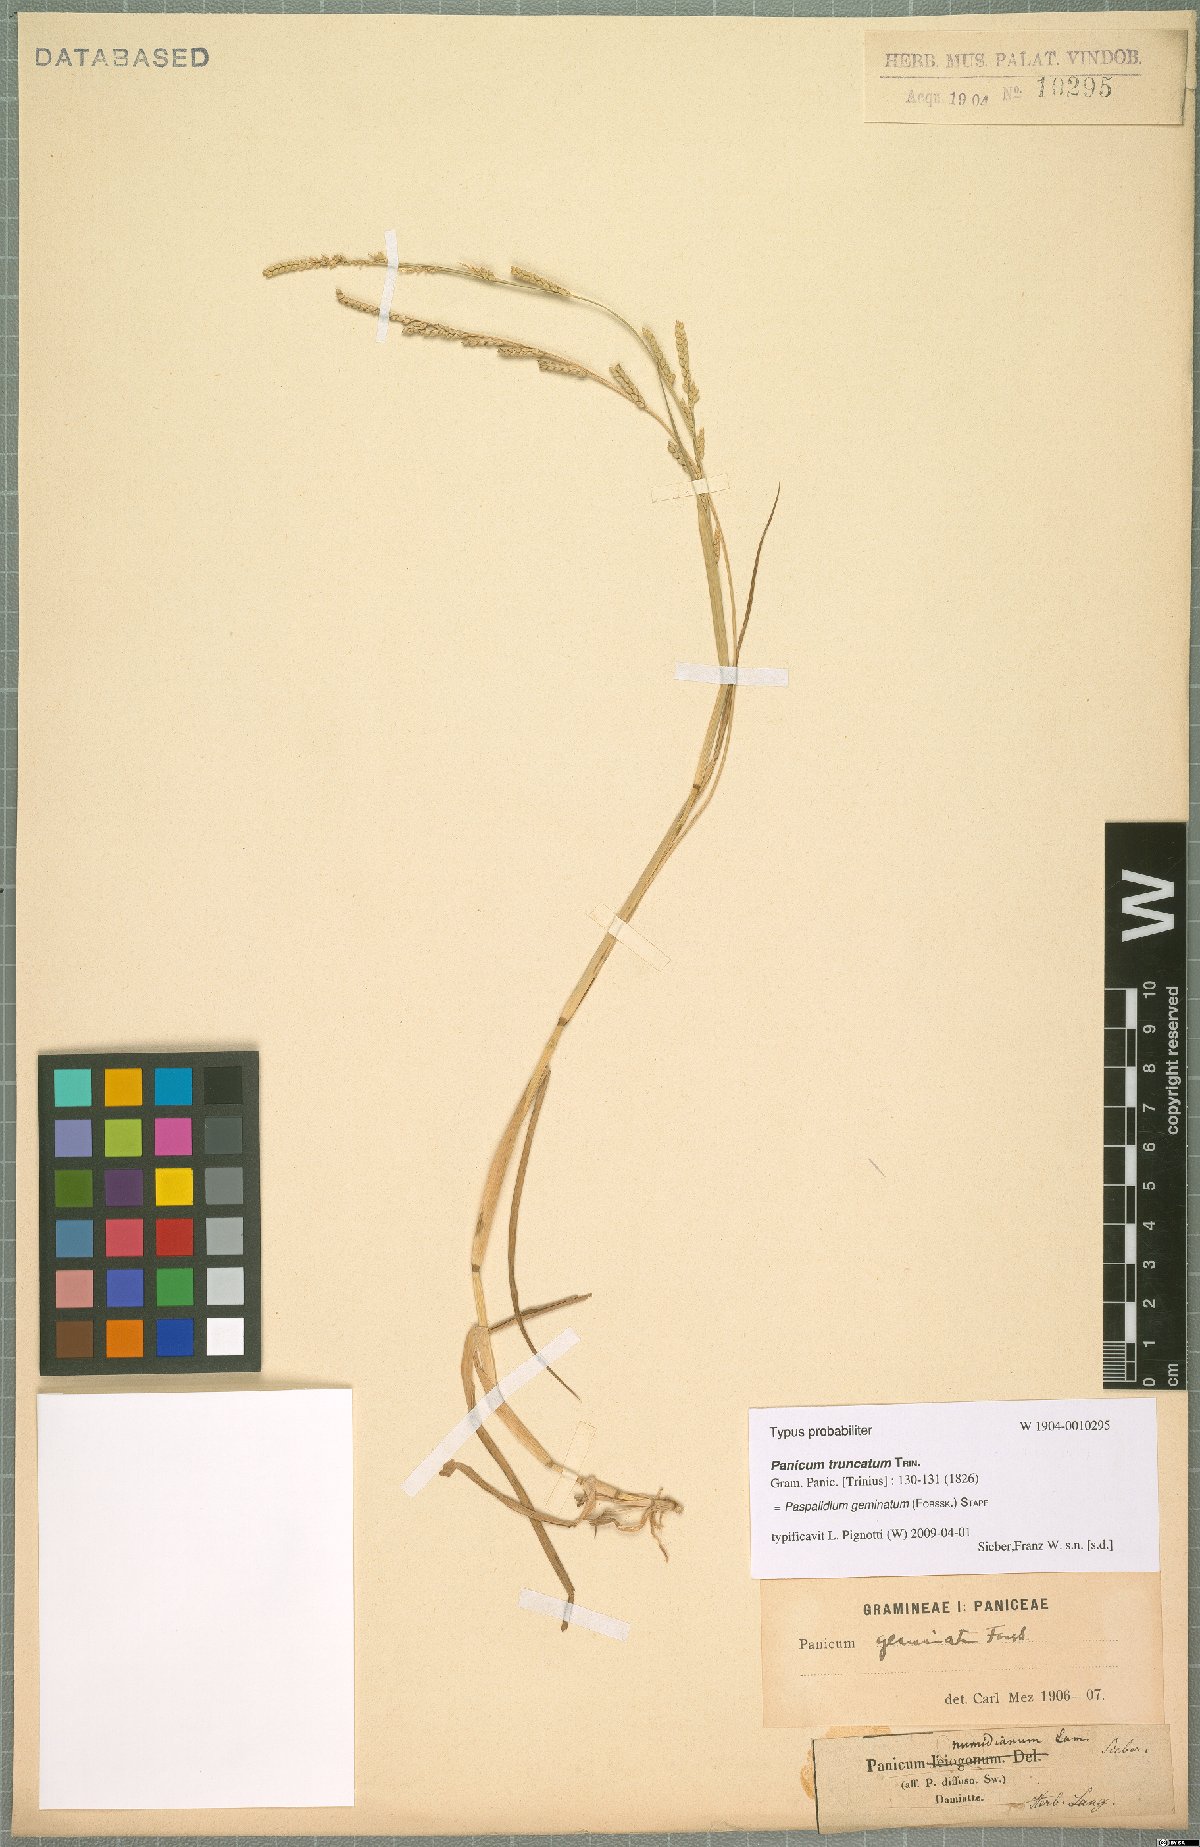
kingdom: Plantae
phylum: Tracheophyta
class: Liliopsida
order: Poales
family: Poaceae
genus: Setaria
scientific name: Setaria geminata
